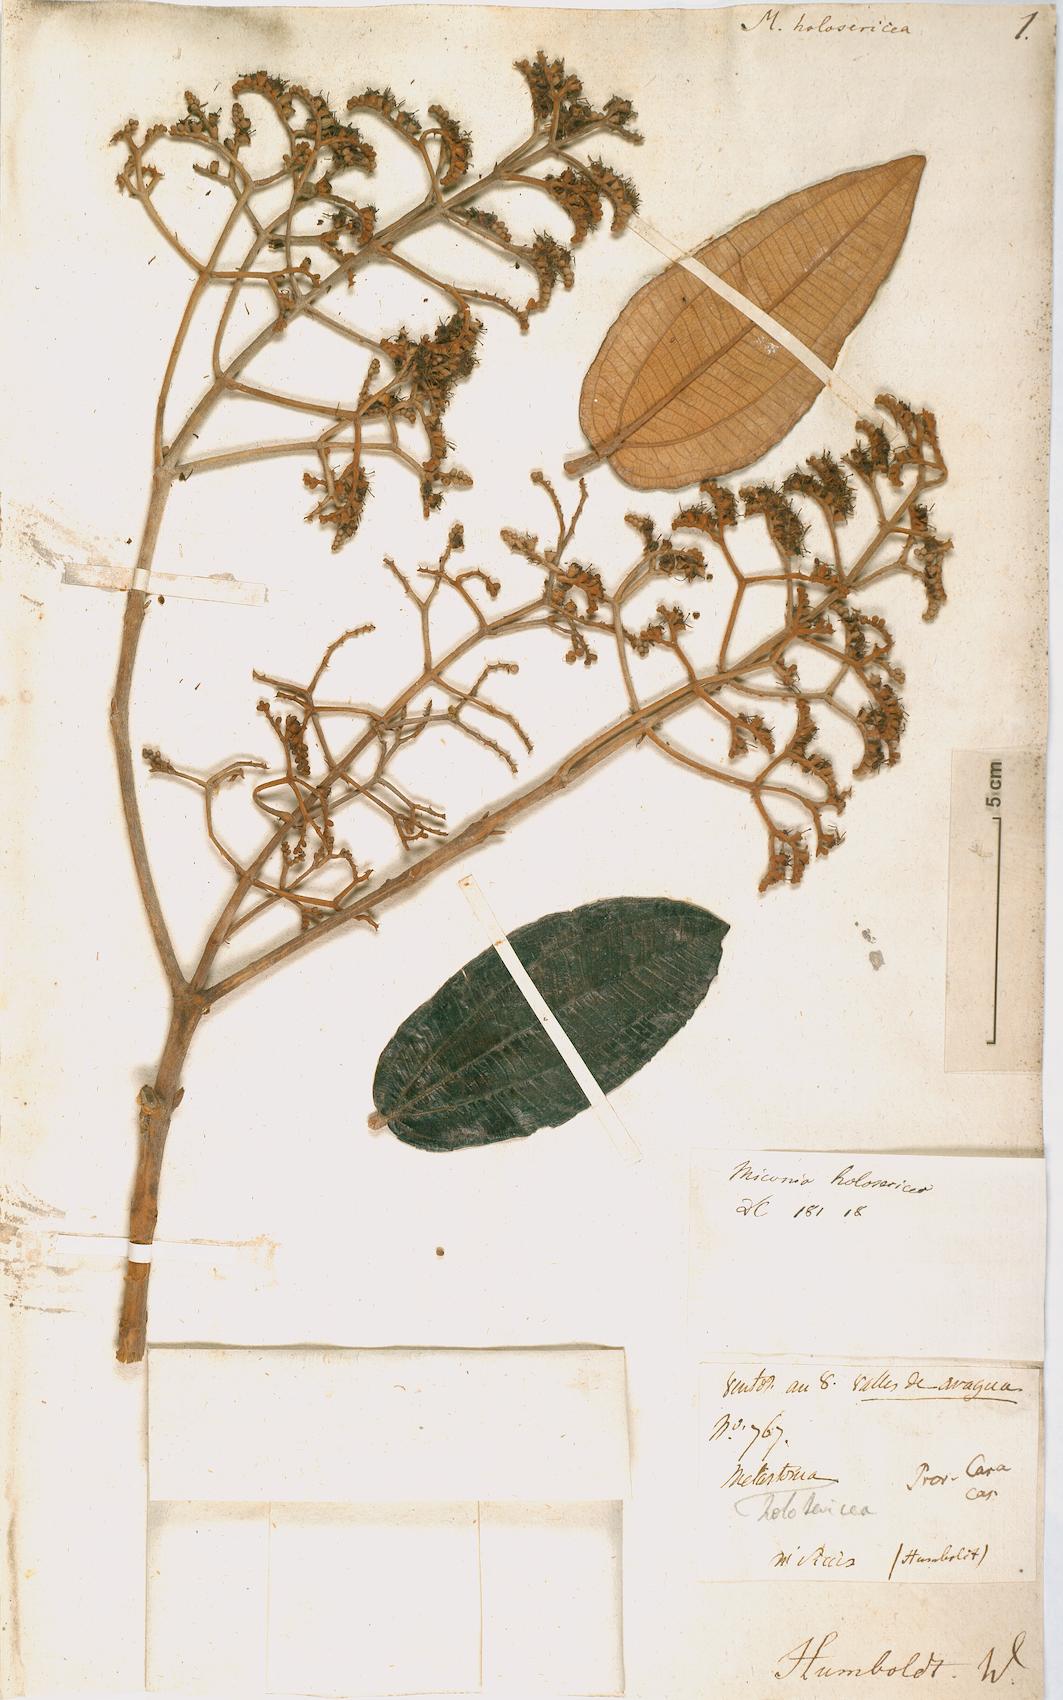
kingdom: Plantae
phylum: Tracheophyta
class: Magnoliopsida
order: Myrtales
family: Melastomataceae
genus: Miconia
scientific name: Miconia holosericea
